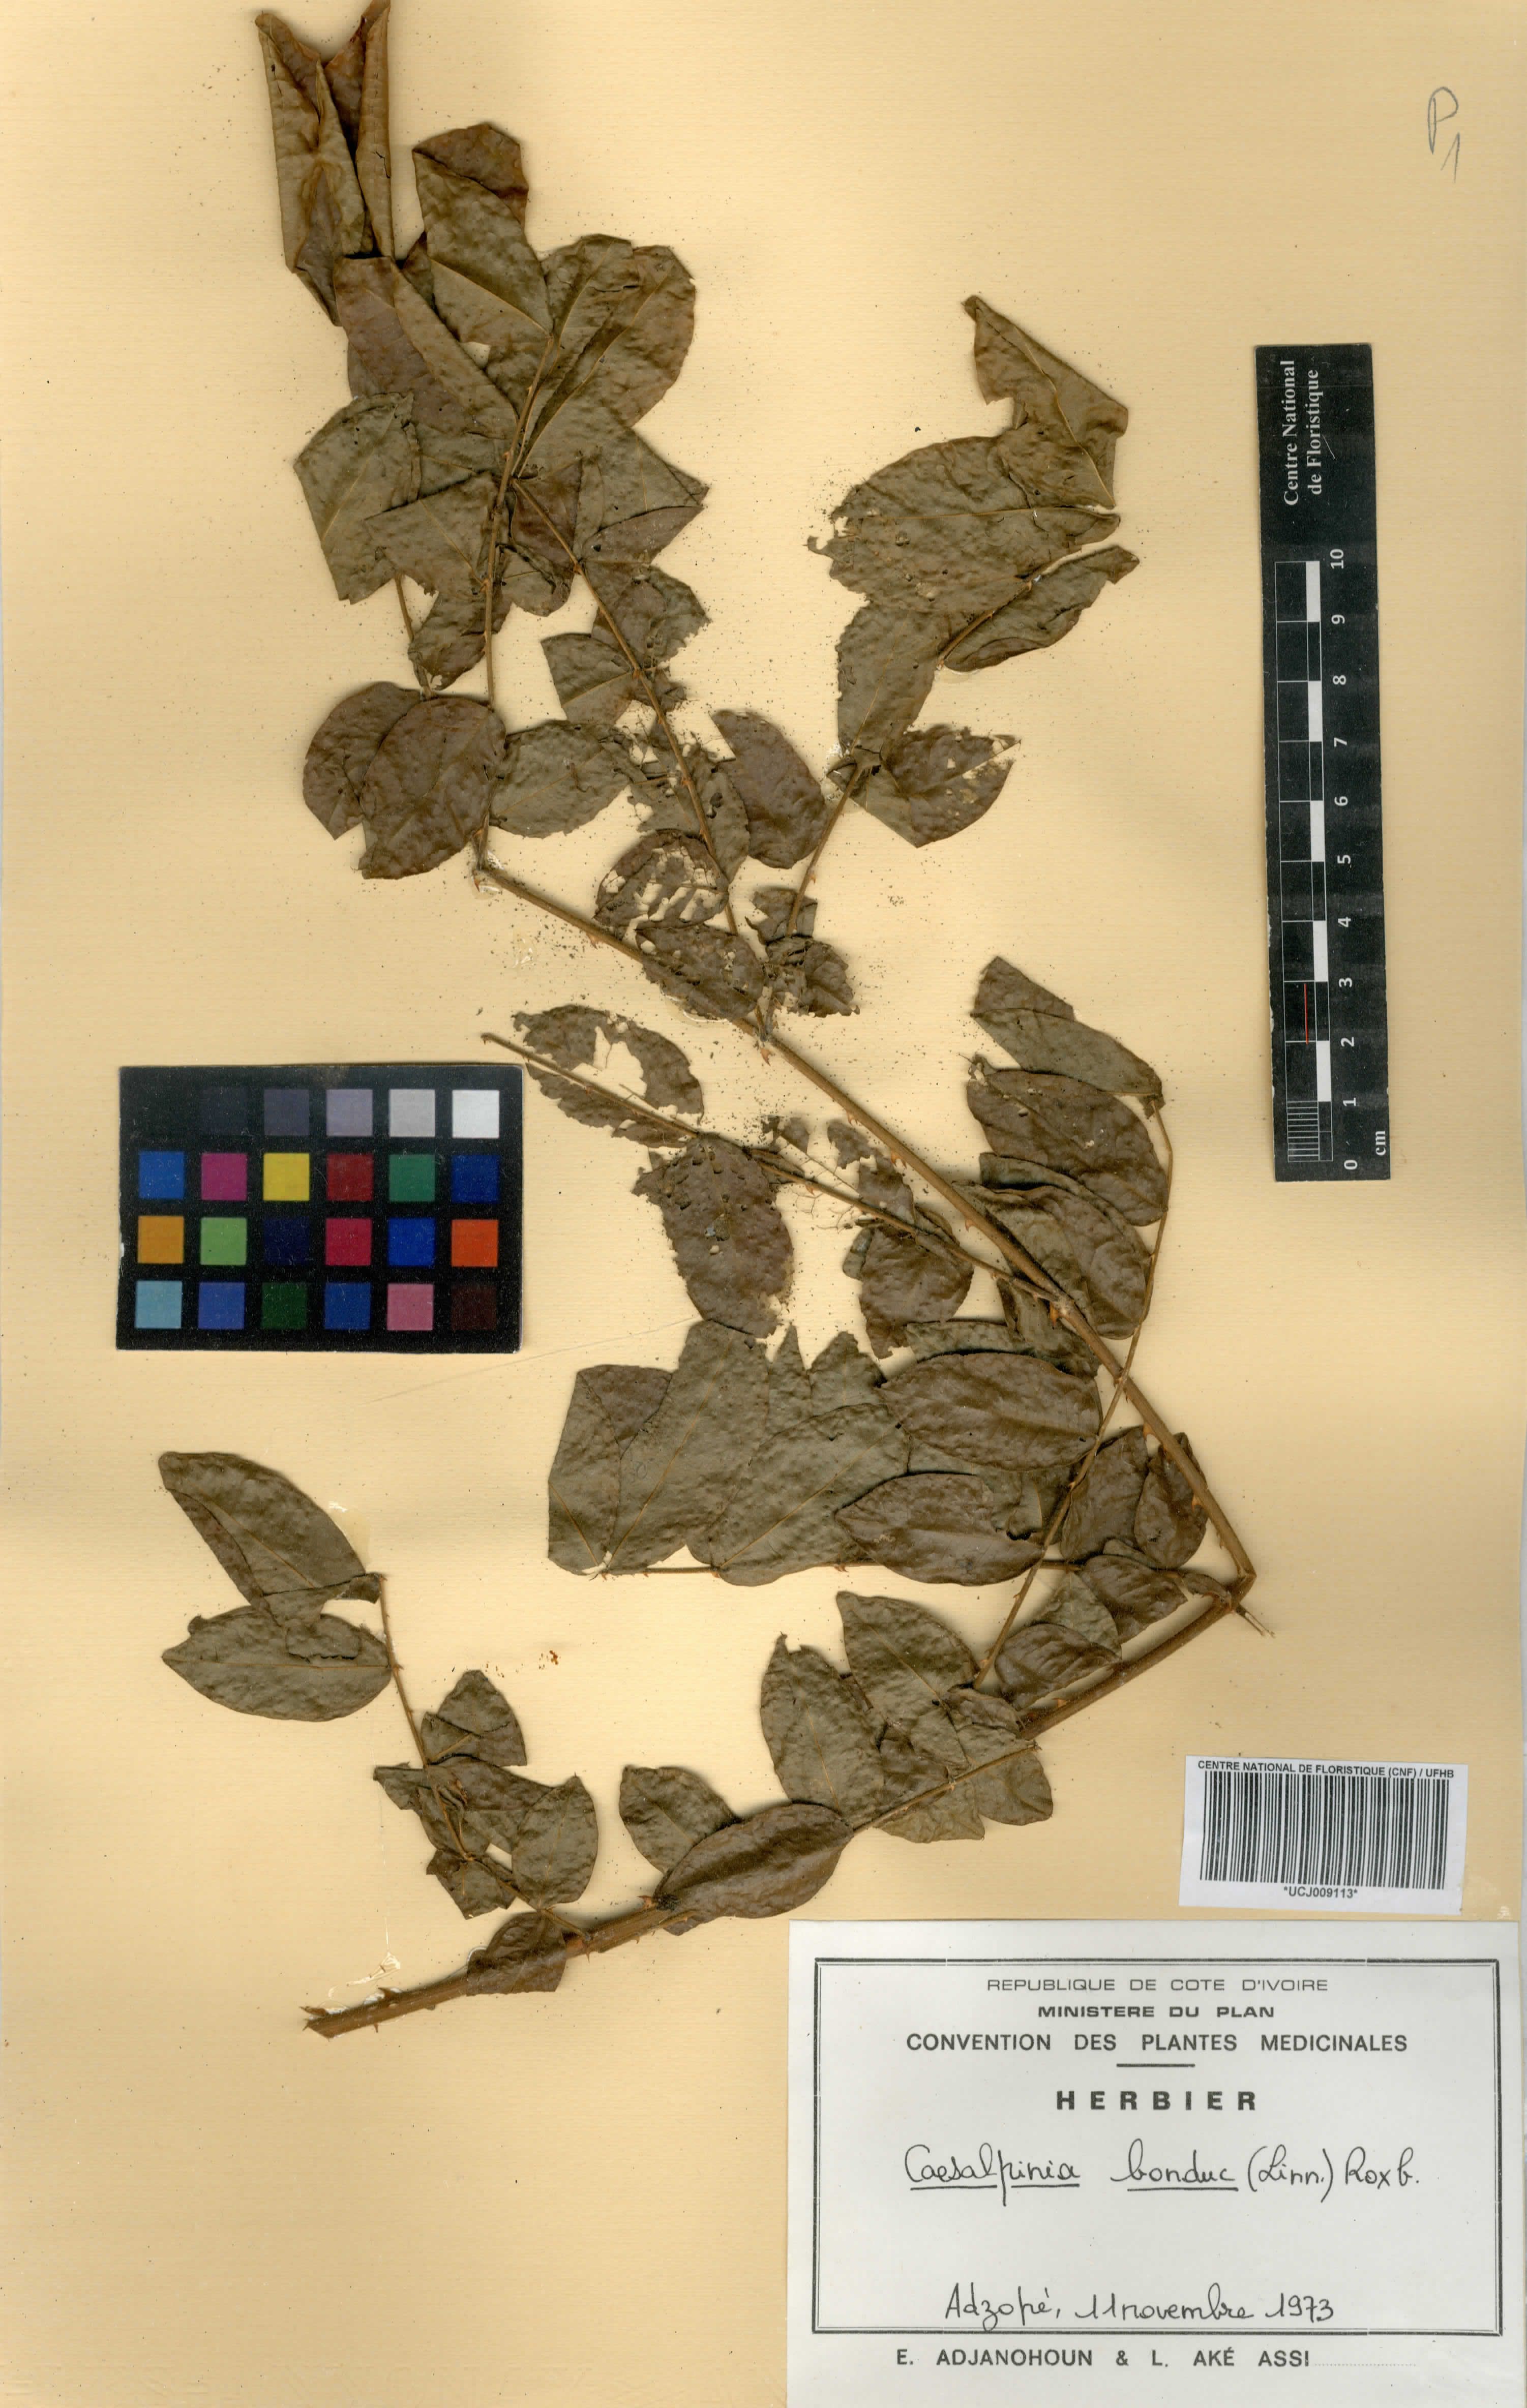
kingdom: Plantae
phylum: Tracheophyta
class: Magnoliopsida
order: Fabales
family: Fabaceae
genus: Guilandina
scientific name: Guilandina bonduc
